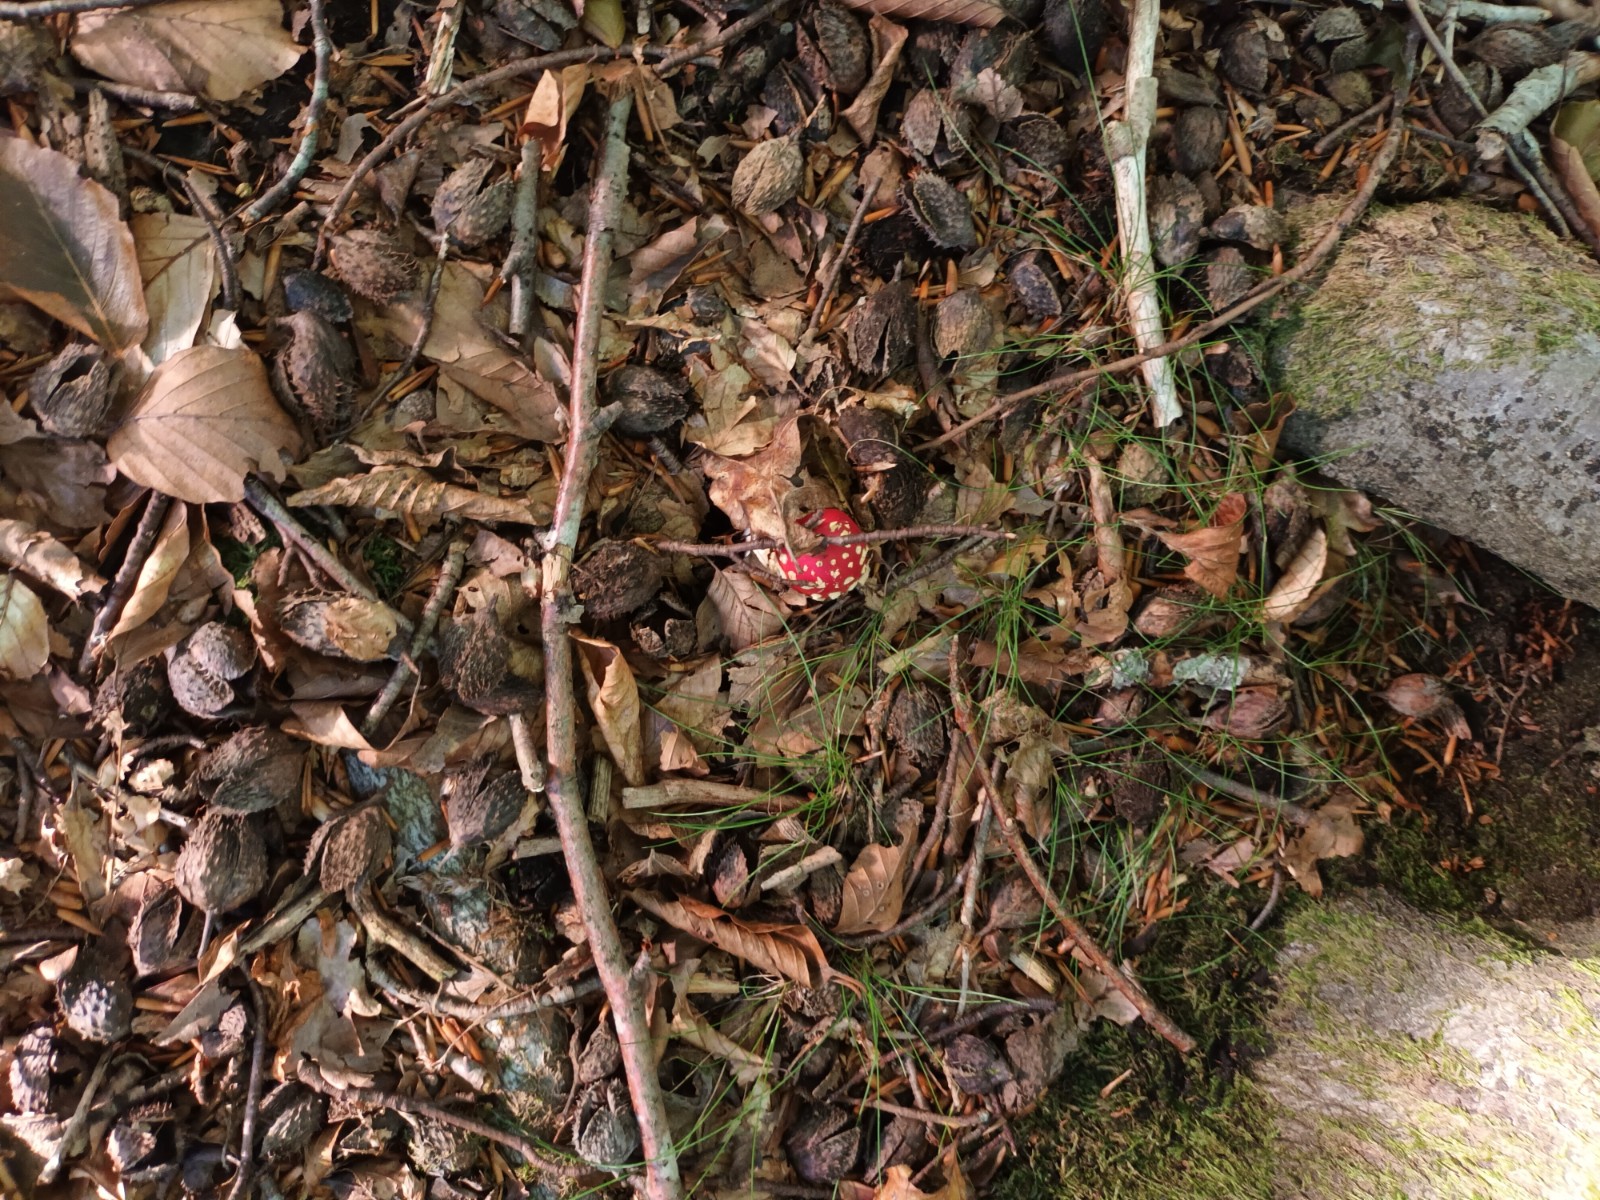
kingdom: Fungi
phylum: Basidiomycota
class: Agaricomycetes
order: Agaricales
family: Amanitaceae
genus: Amanita
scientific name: Amanita muscaria
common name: rød fluesvamp
